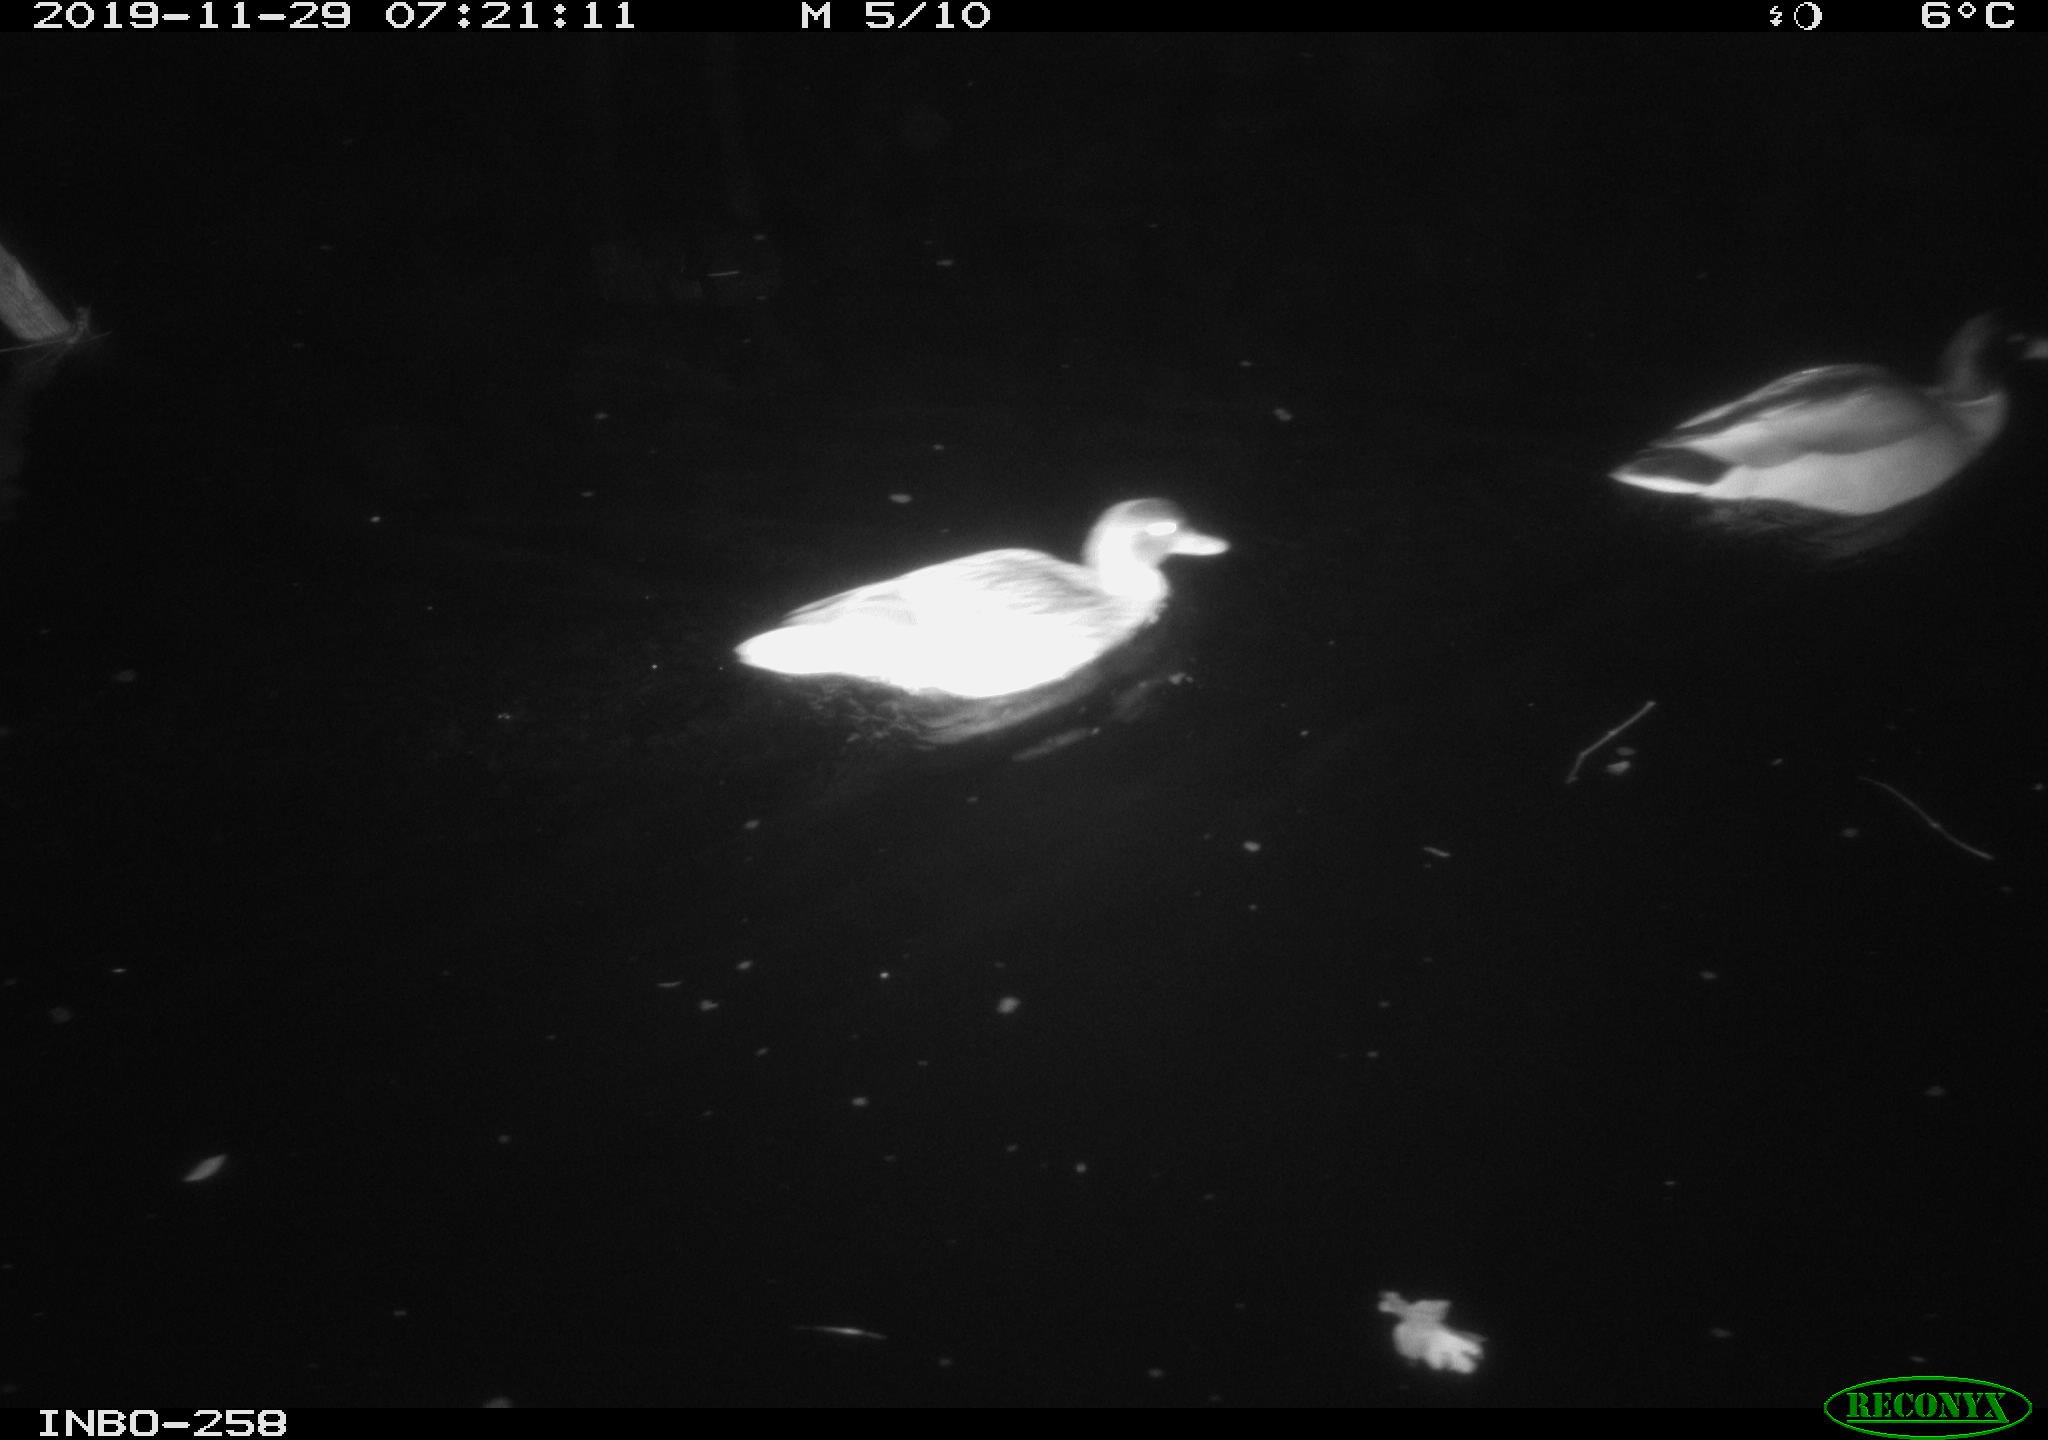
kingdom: Animalia
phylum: Chordata
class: Aves
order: Anseriformes
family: Anatidae
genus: Anas
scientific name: Anas platyrhynchos
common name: Mallard
